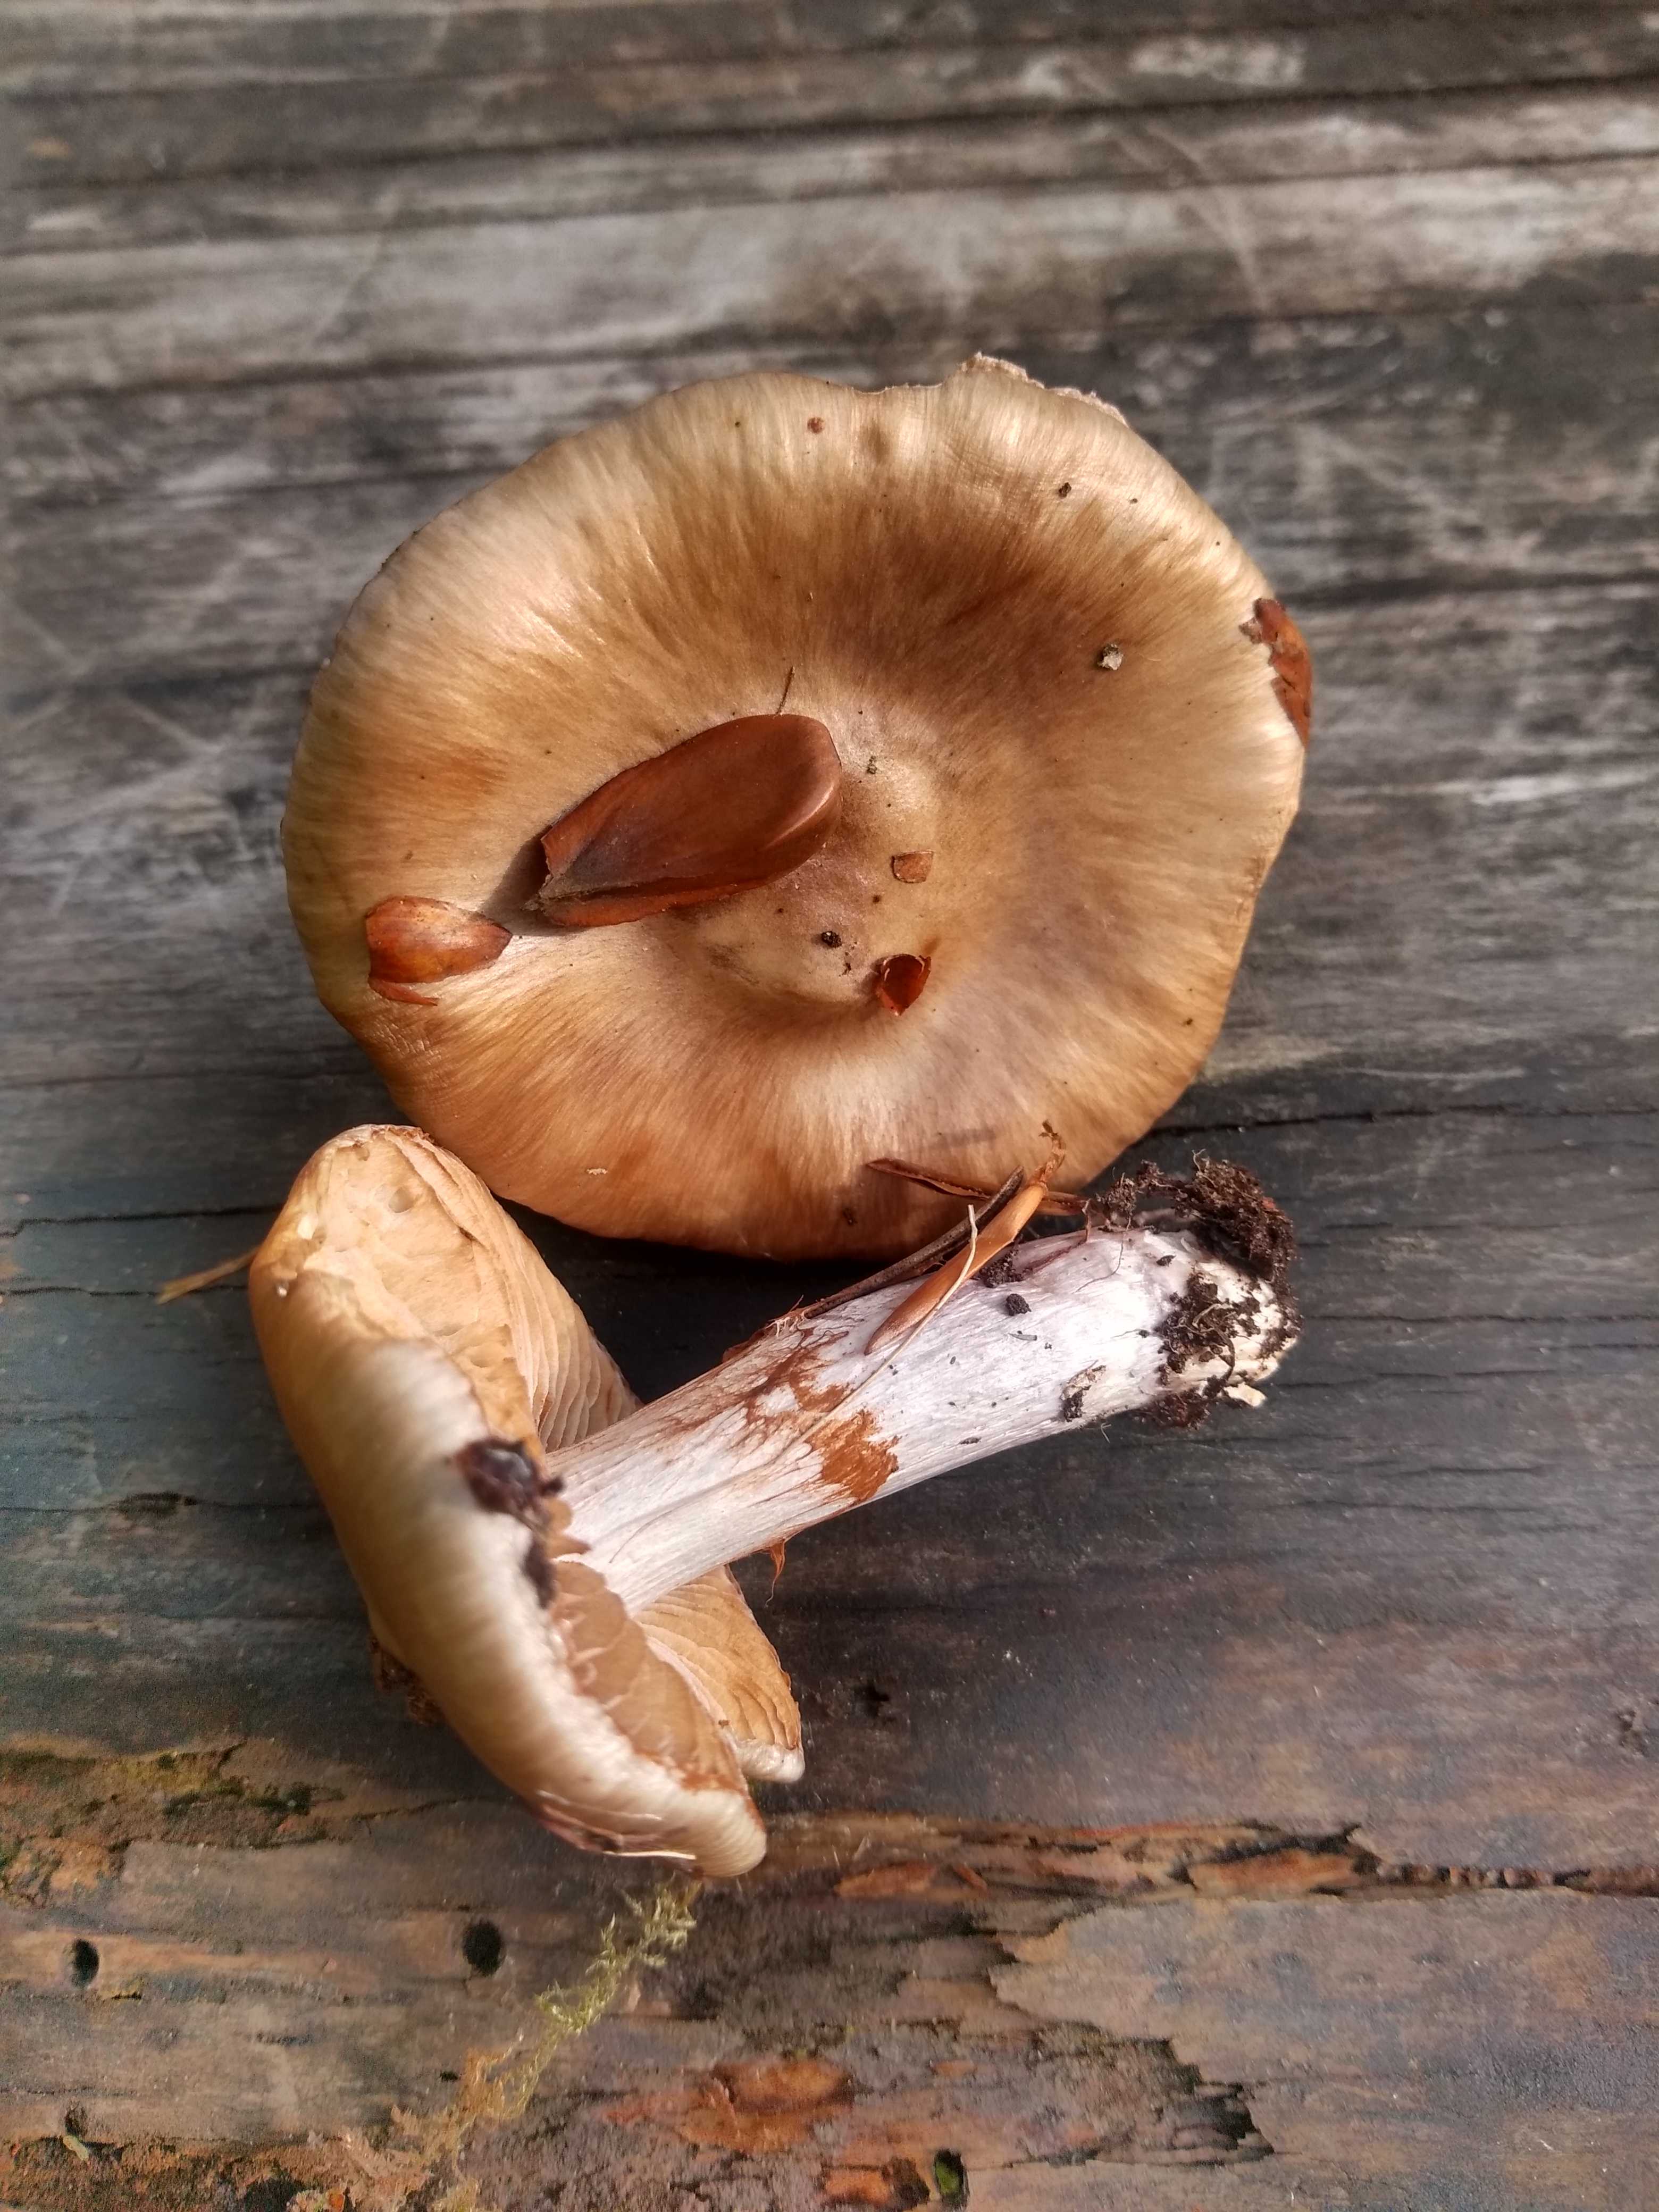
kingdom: Fungi
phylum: Basidiomycota
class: Agaricomycetes
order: Agaricales
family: Cortinariaceae
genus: Cortinarius
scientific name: Cortinarius
